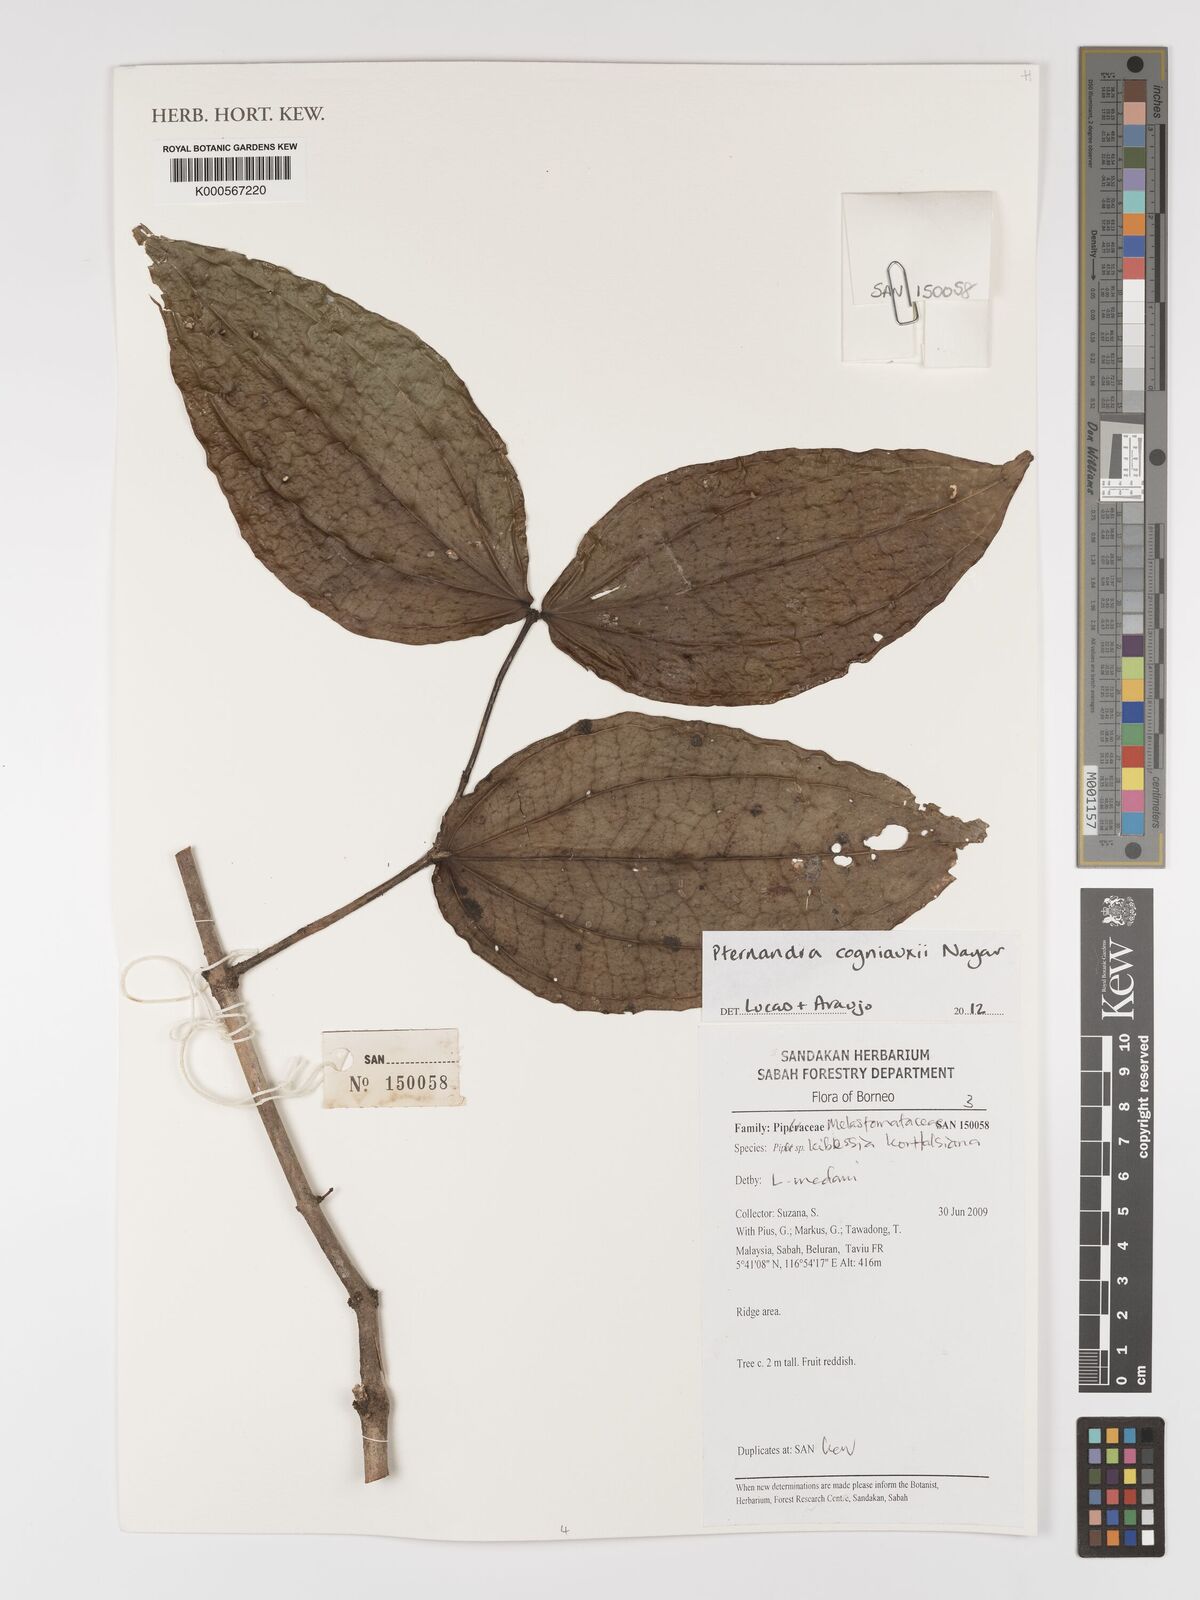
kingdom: Plantae
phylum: Tracheophyta
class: Magnoliopsida
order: Myrtales
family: Melastomataceae
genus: Pternandra
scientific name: Pternandra cogniauxii
